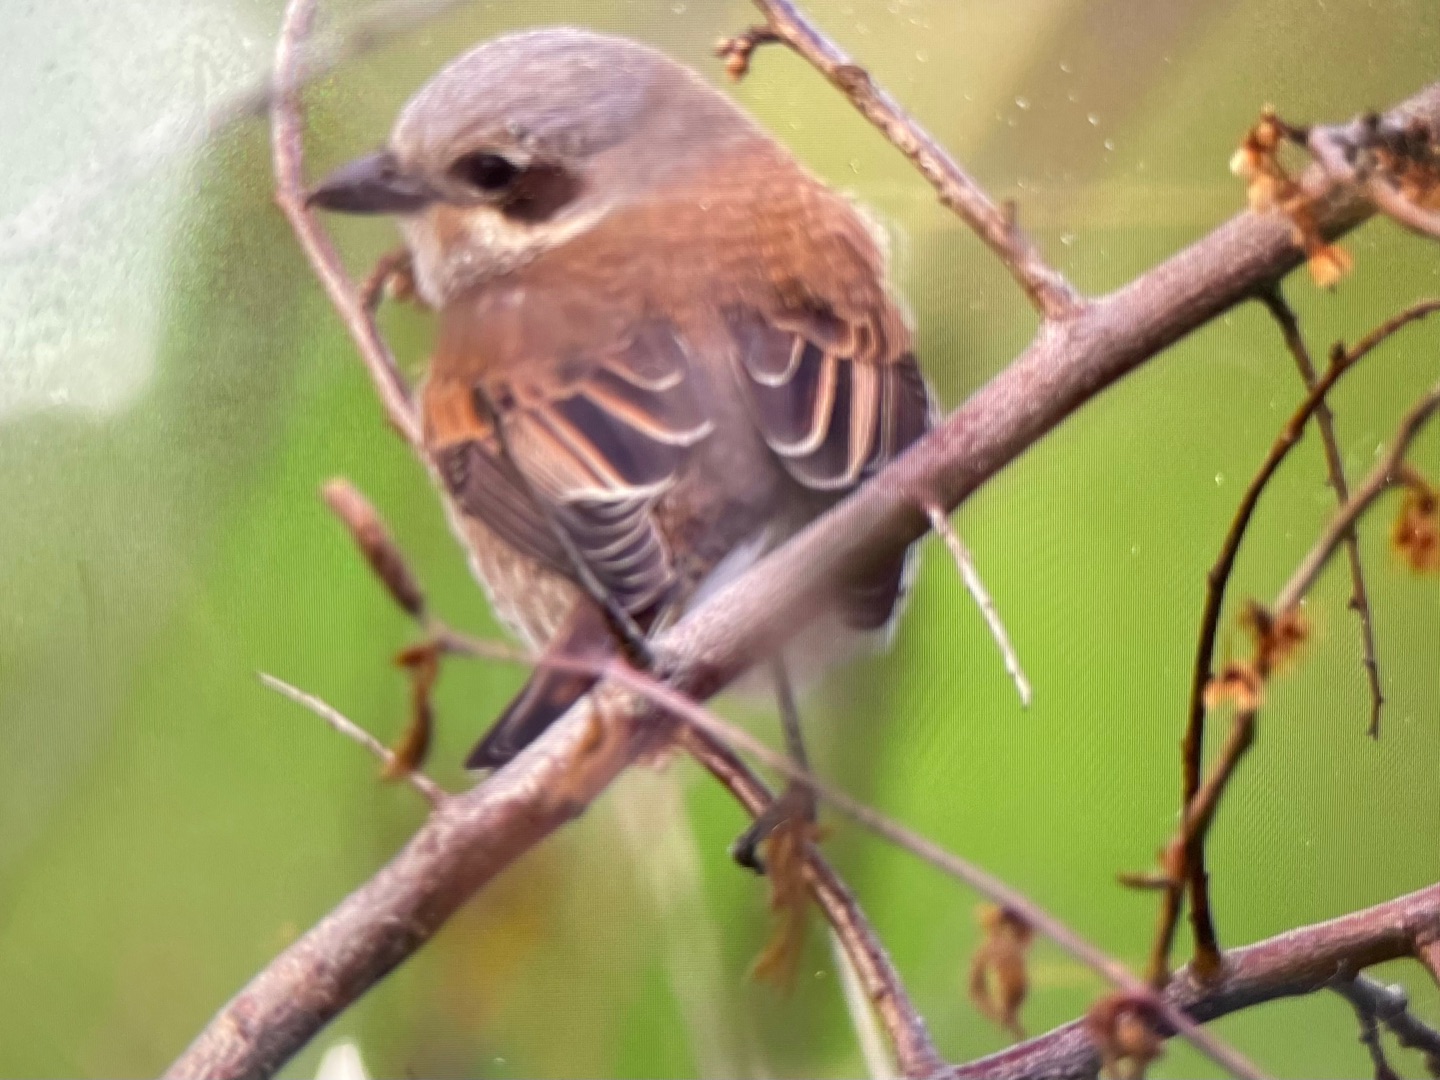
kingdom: Animalia
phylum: Chordata
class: Aves
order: Passeriformes
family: Laniidae
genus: Lanius
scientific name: Lanius collurio
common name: Rødrygget tornskade
